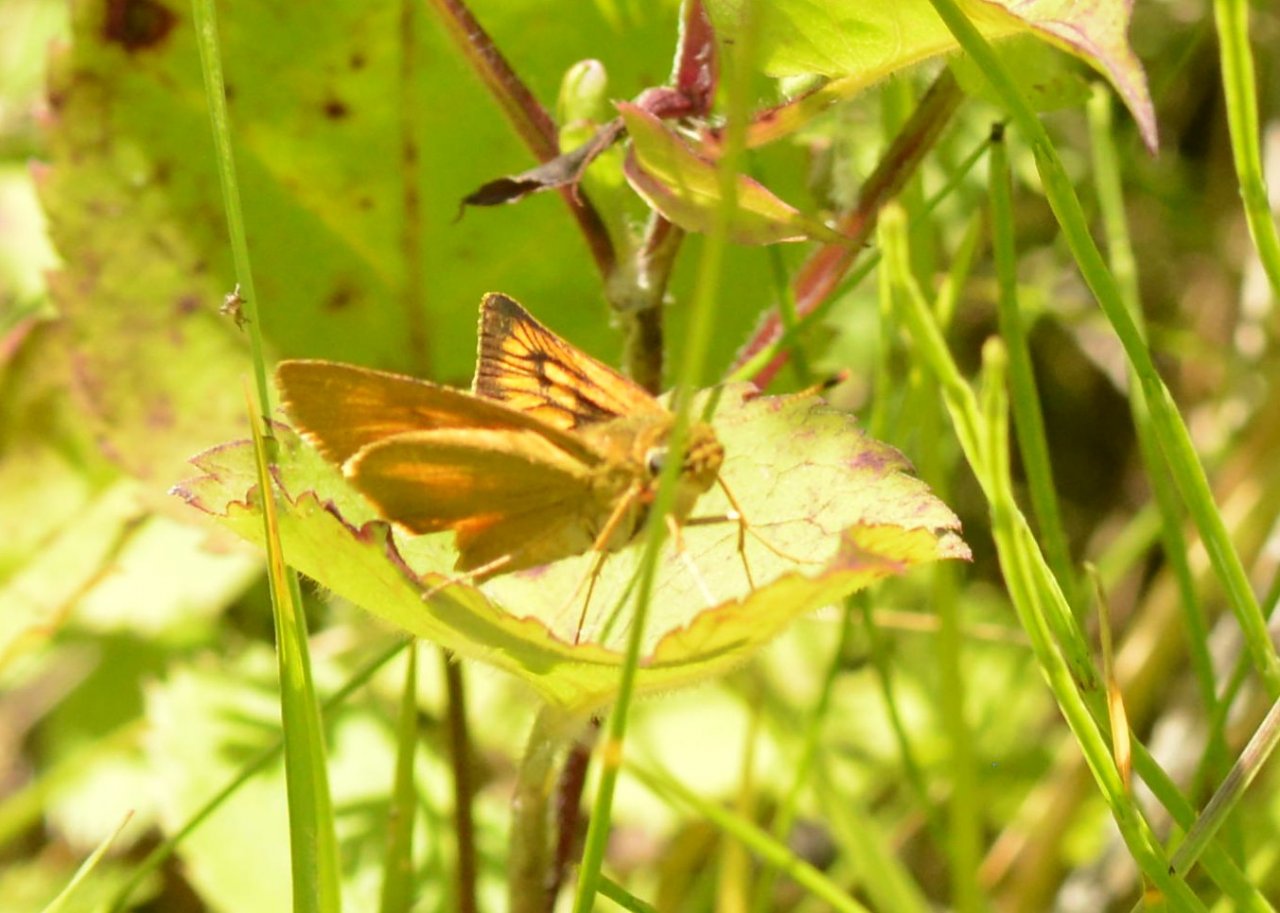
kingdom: Animalia
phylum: Arthropoda
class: Insecta
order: Lepidoptera
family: Hesperiidae
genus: Atrytone
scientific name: Atrytone delaware
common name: Delaware Skipper
